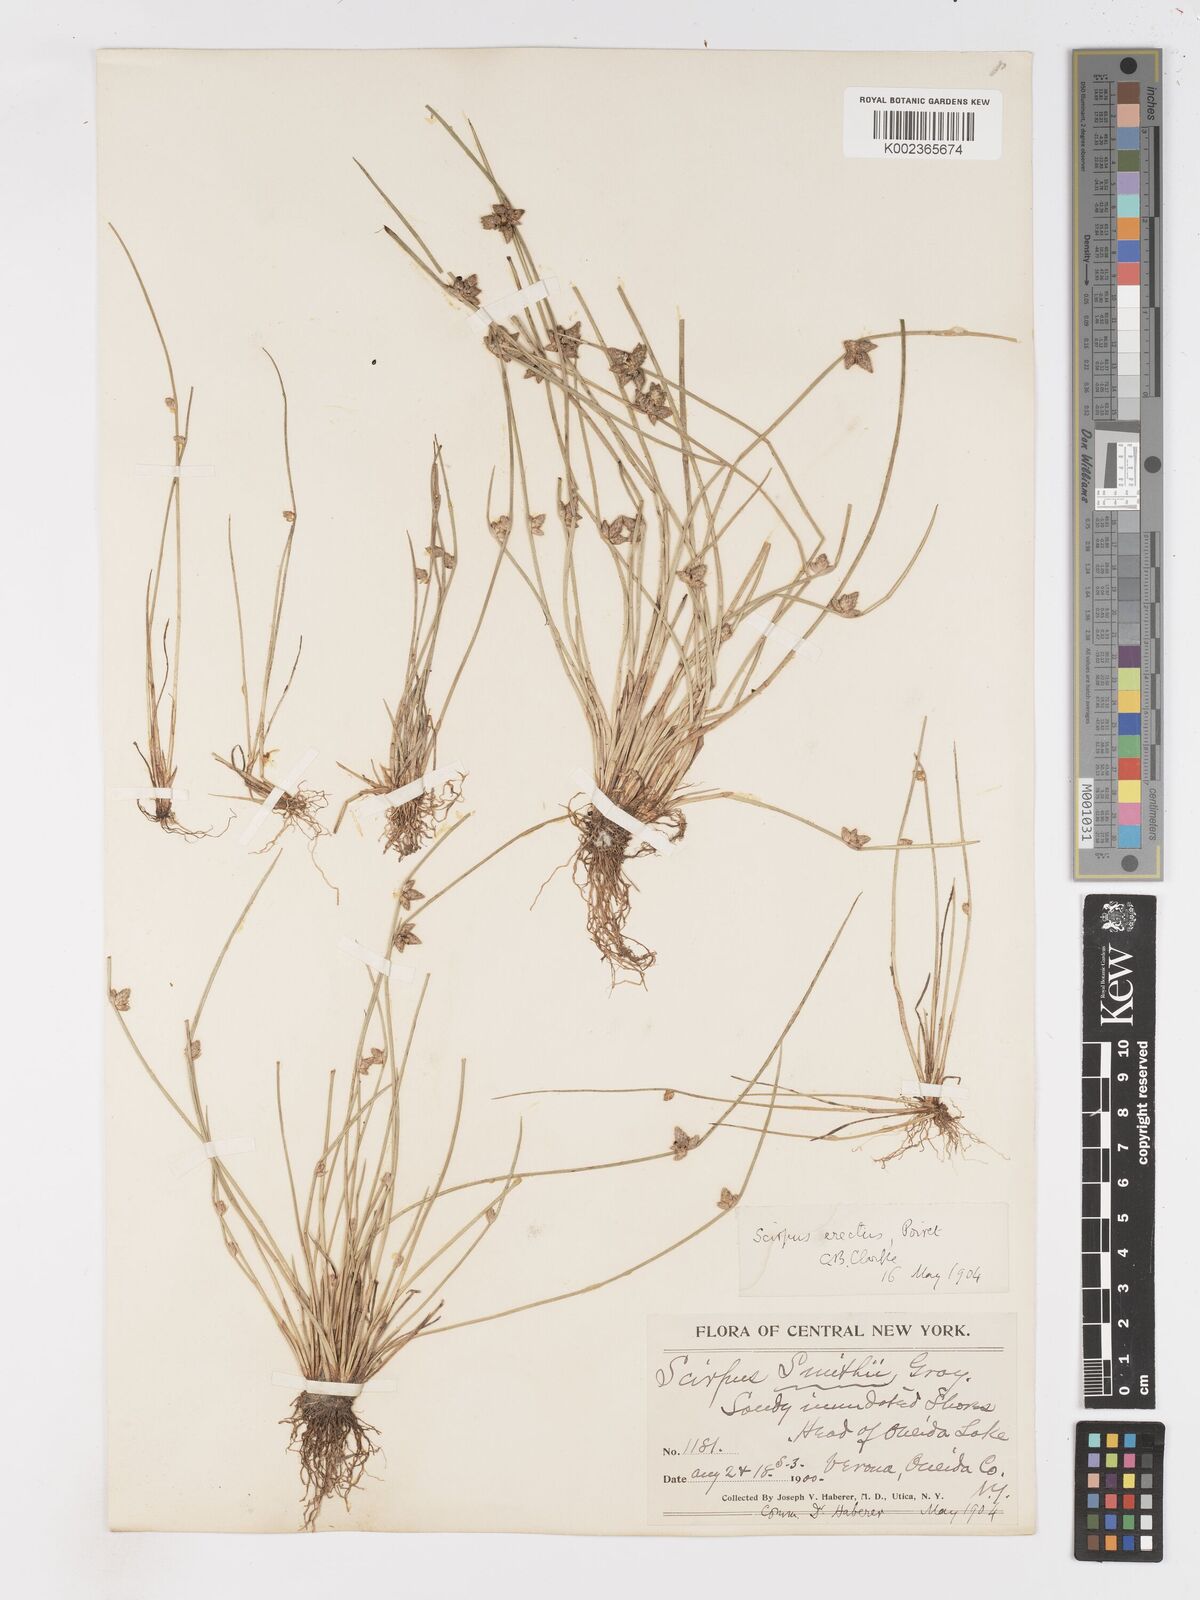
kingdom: Plantae
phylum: Tracheophyta
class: Liliopsida
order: Poales
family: Cyperaceae
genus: Schoenoplectiella
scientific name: Schoenoplectiella purshiana
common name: Weak-stalked bulrush
